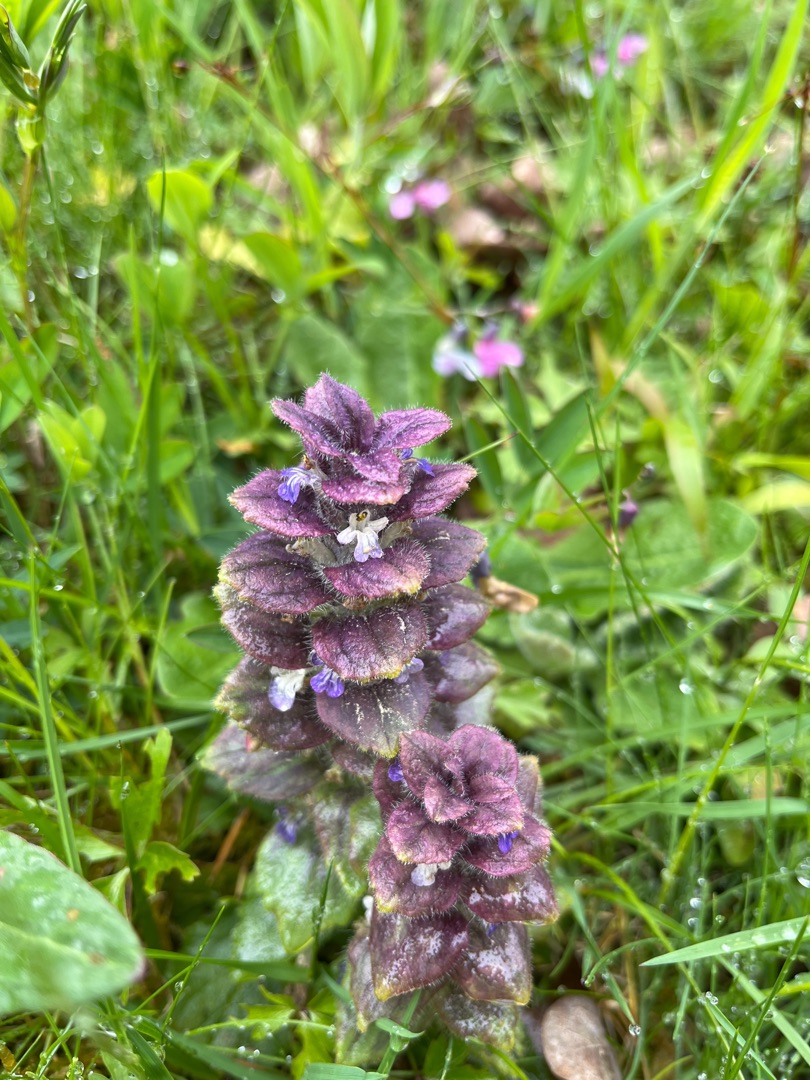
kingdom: Plantae
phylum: Tracheophyta
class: Magnoliopsida
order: Lamiales
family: Lamiaceae
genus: Ajuga
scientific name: Ajuga pyramidalis
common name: Pyramide-læbeløs
